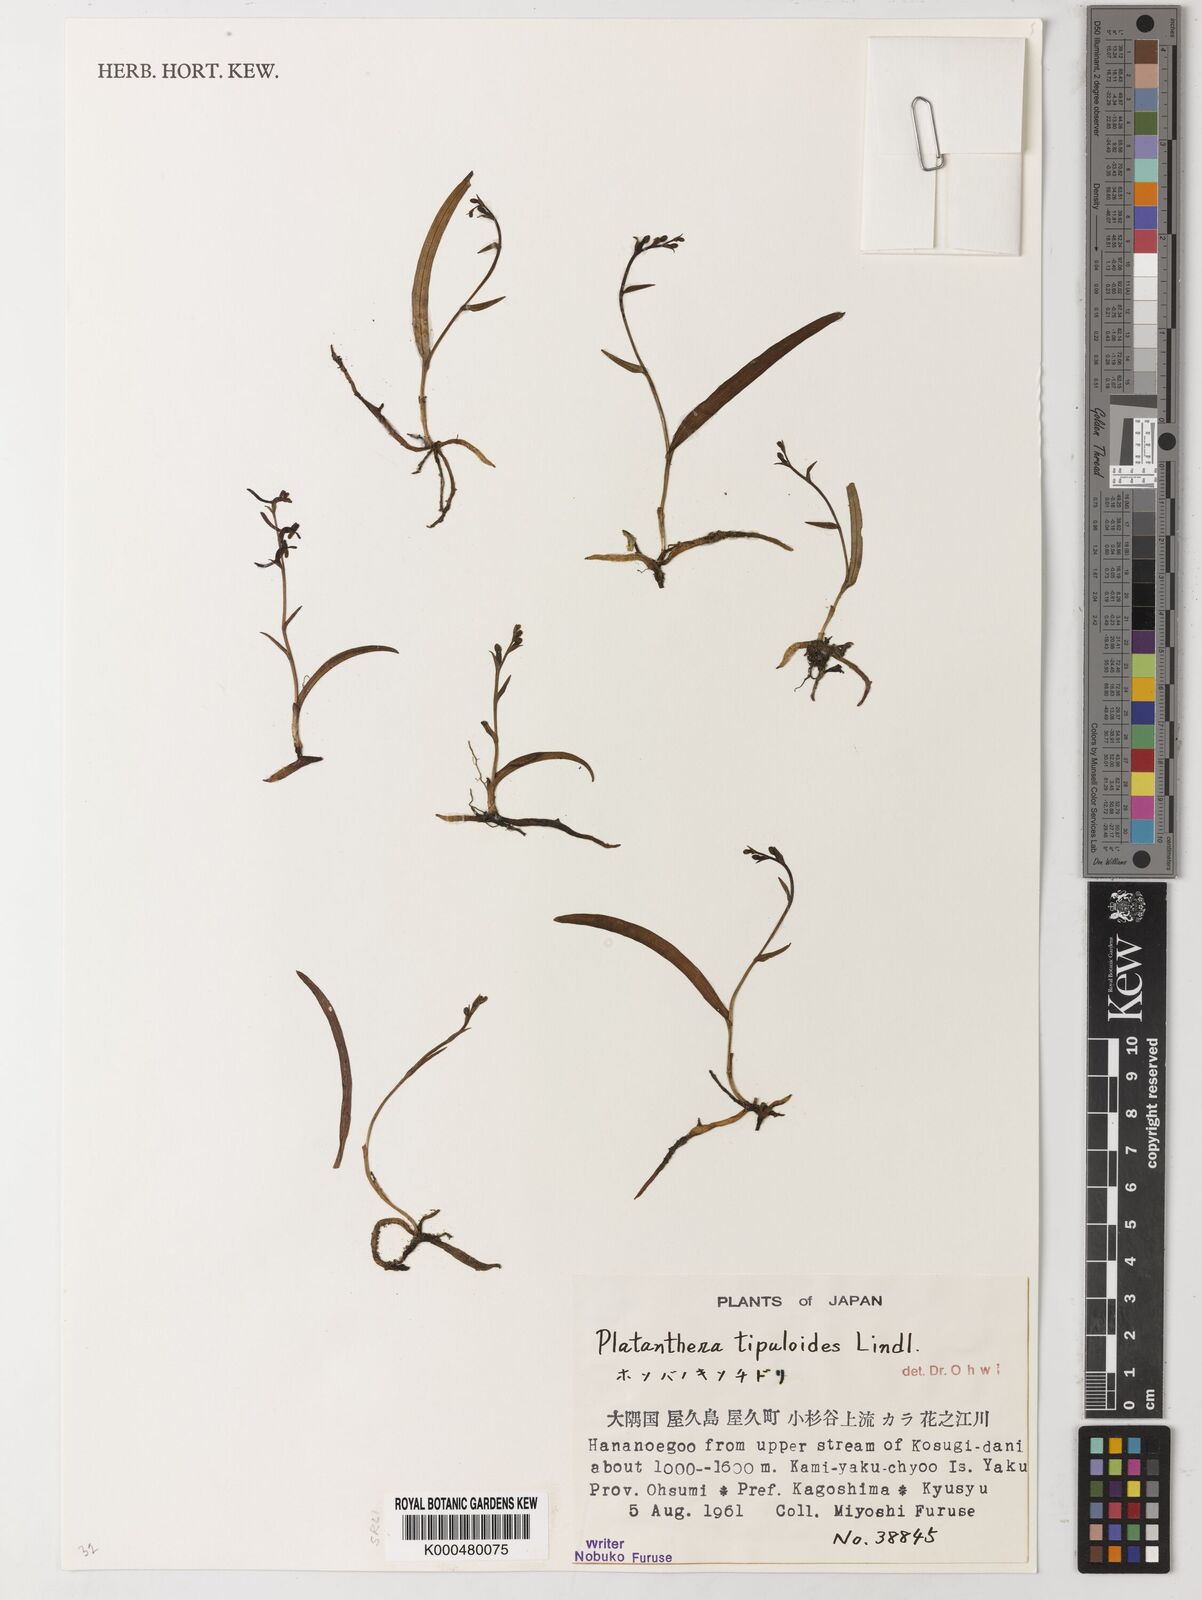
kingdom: Plantae
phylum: Tracheophyta
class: Liliopsida
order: Asparagales
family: Orchidaceae
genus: Platanthera
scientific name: Platanthera tipuloides
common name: Aleutian bog orchid
